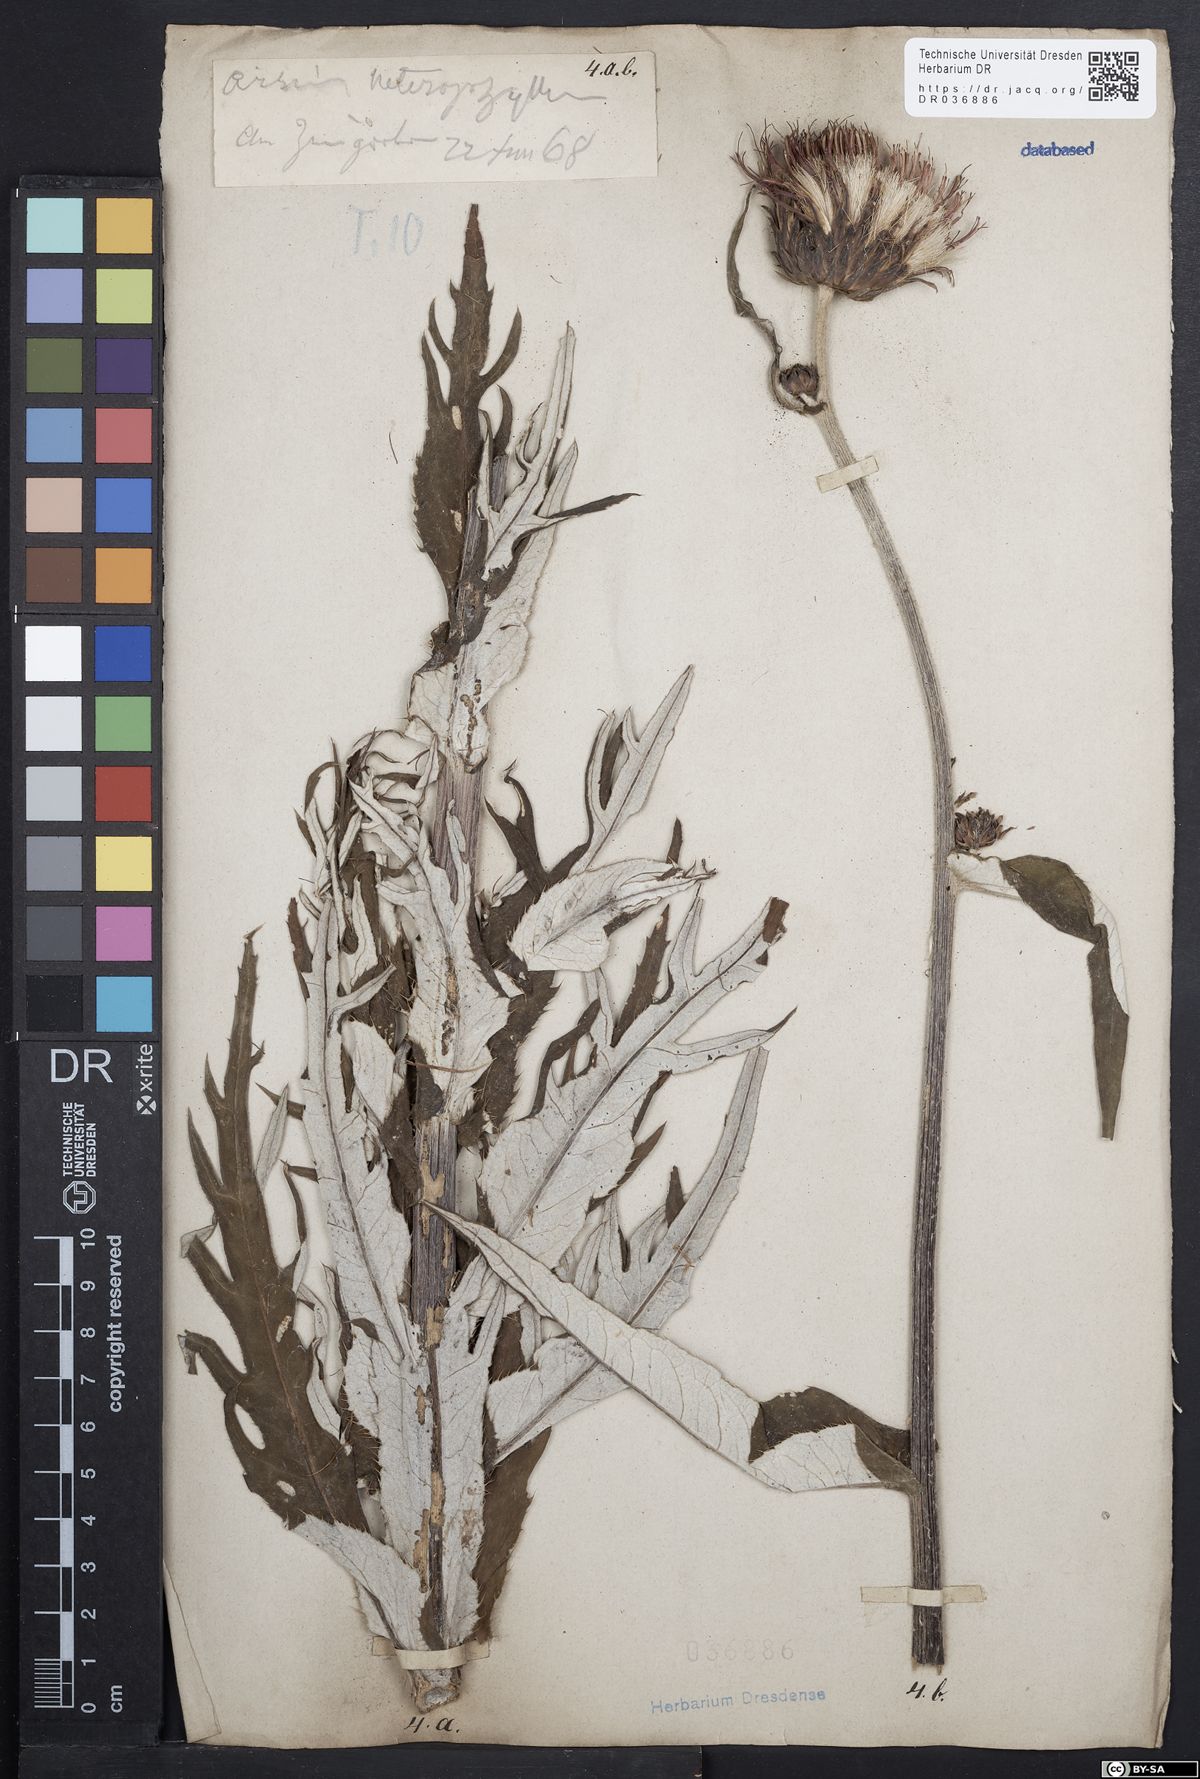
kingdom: Plantae
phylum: Tracheophyta
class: Magnoliopsida
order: Asterales
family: Asteraceae
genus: Cirsium
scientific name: Cirsium helenioides
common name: Melancholy thistle
